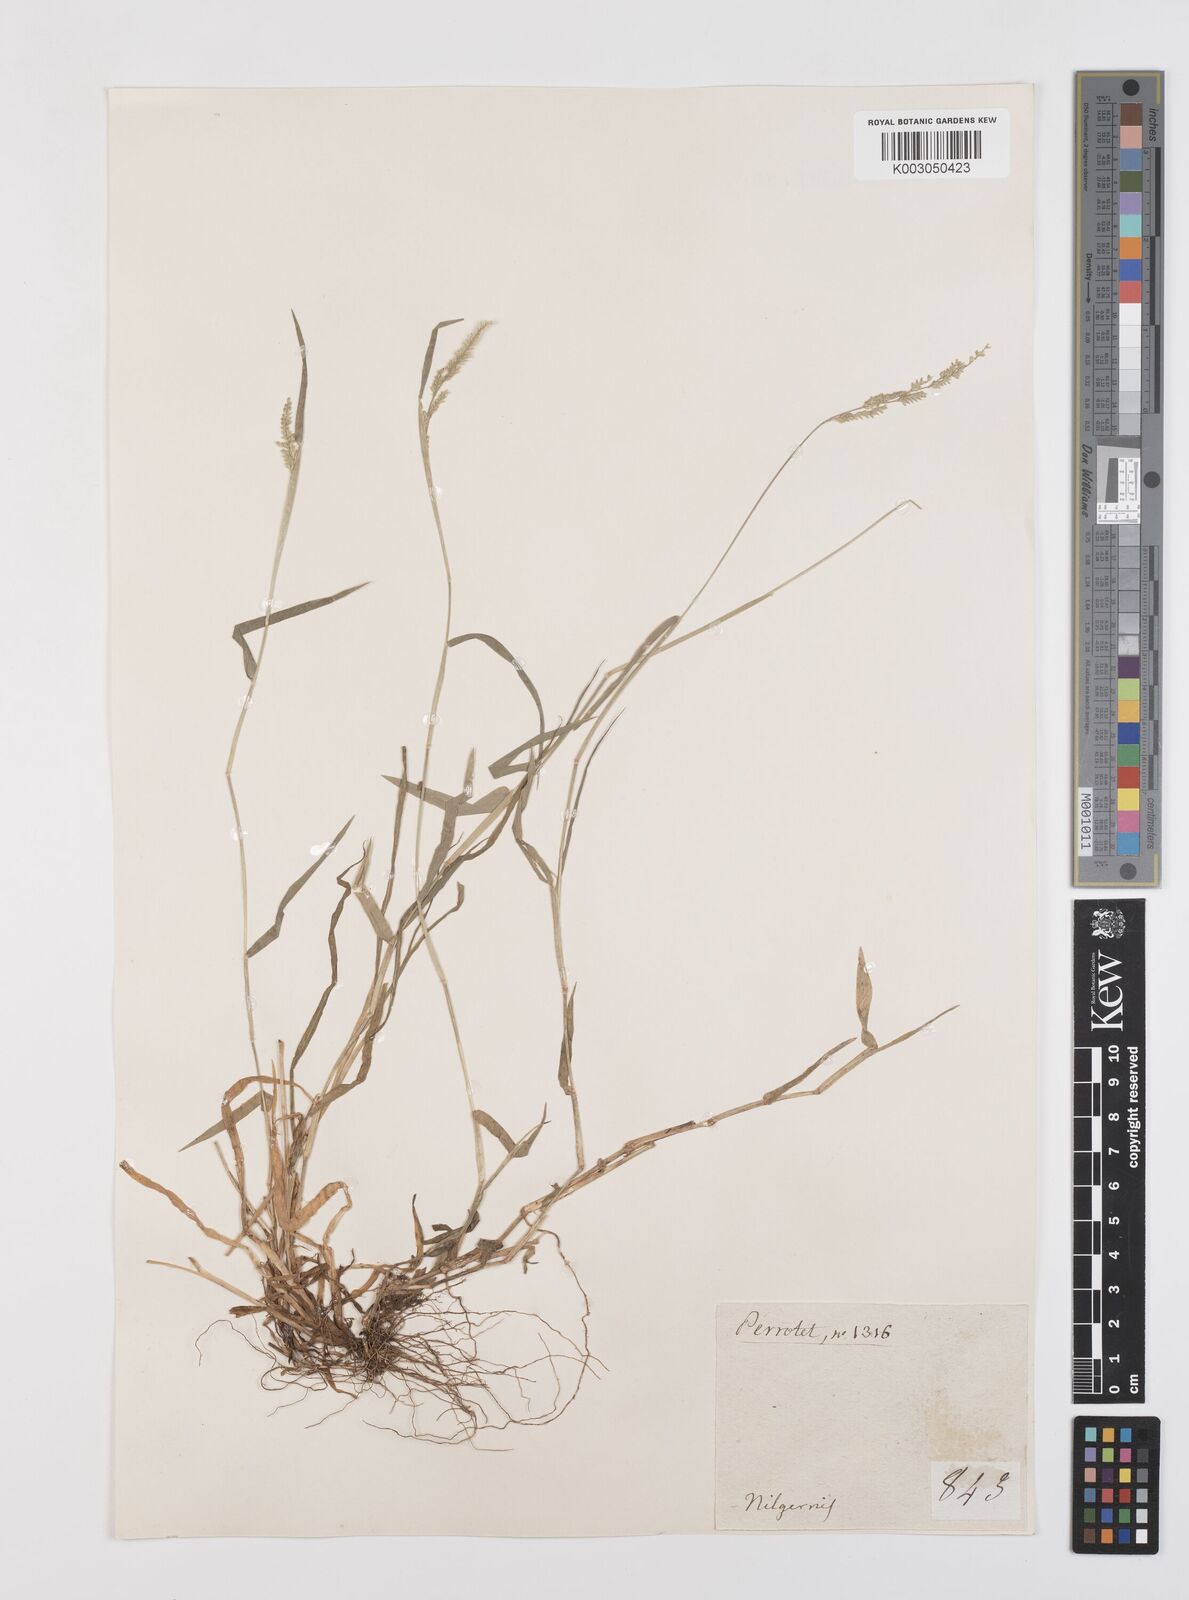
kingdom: Plantae
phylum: Tracheophyta
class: Liliopsida
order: Poales
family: Poaceae
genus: Moorochloa
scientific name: Moorochloa eruciformis
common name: Sweet signalgrass
